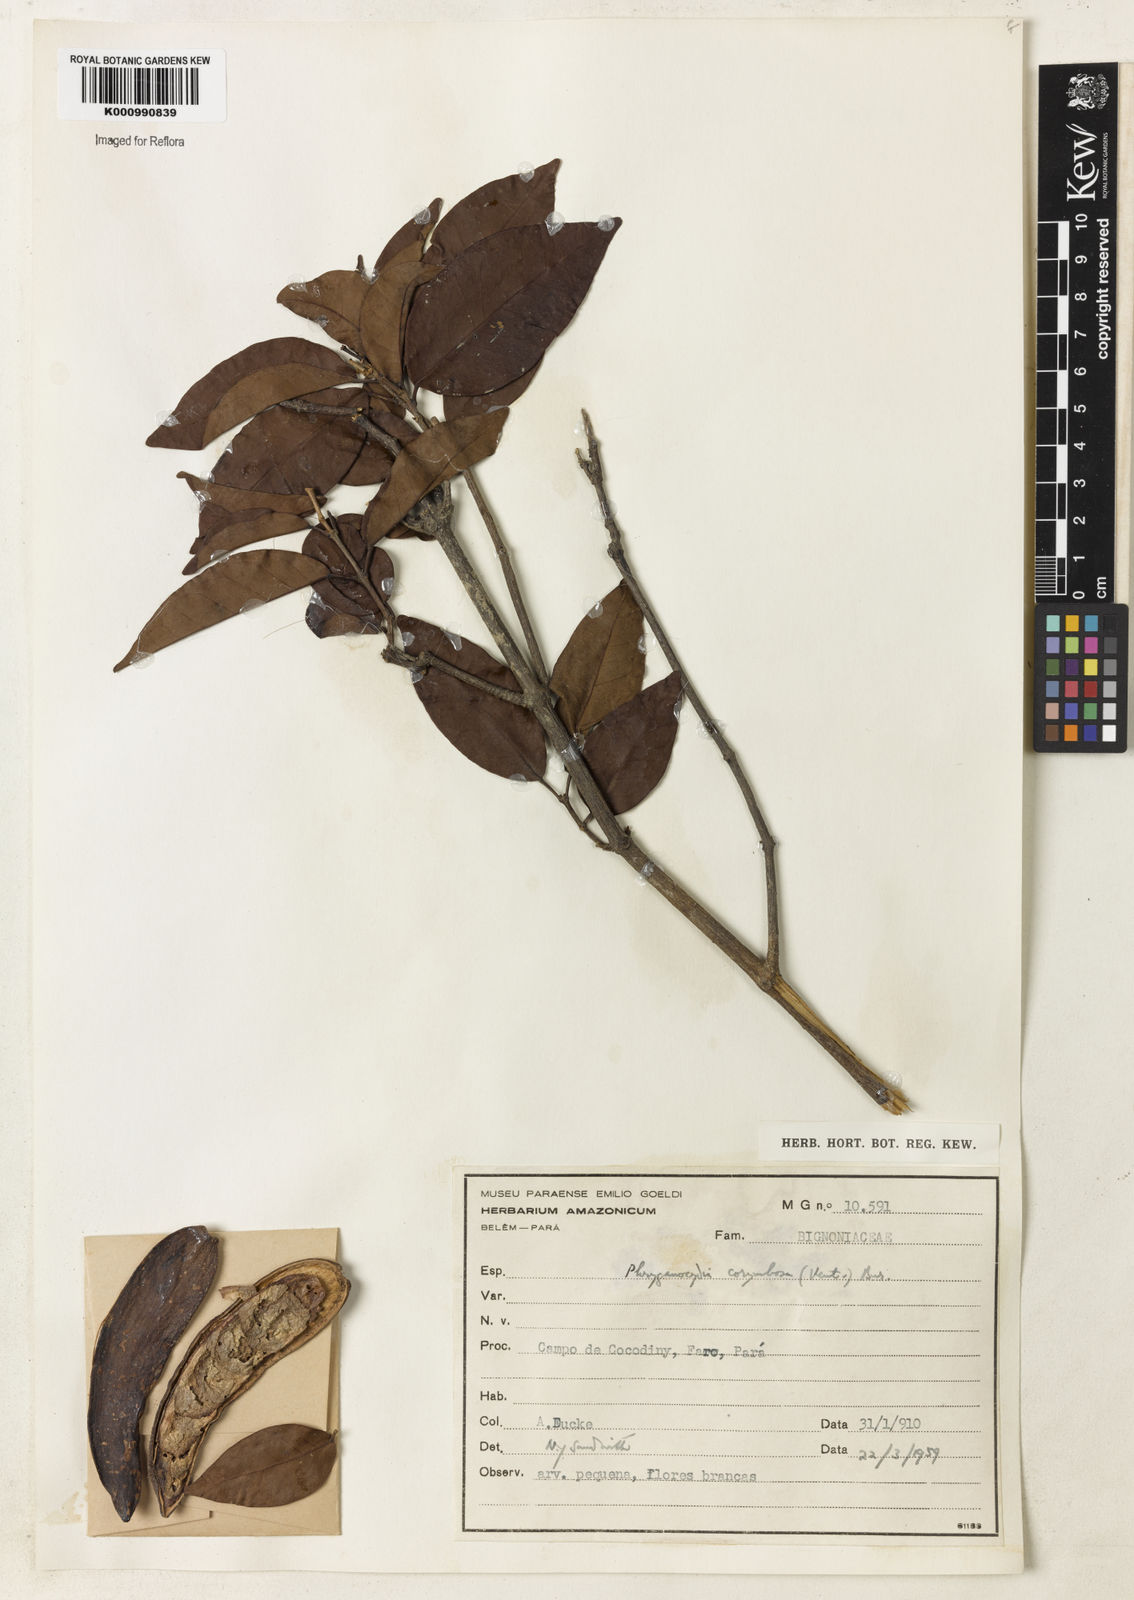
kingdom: Plantae
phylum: Tracheophyta
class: Magnoliopsida
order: Lamiales
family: Bignoniaceae
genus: Bignonia
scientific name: Bignonia corymbosa
